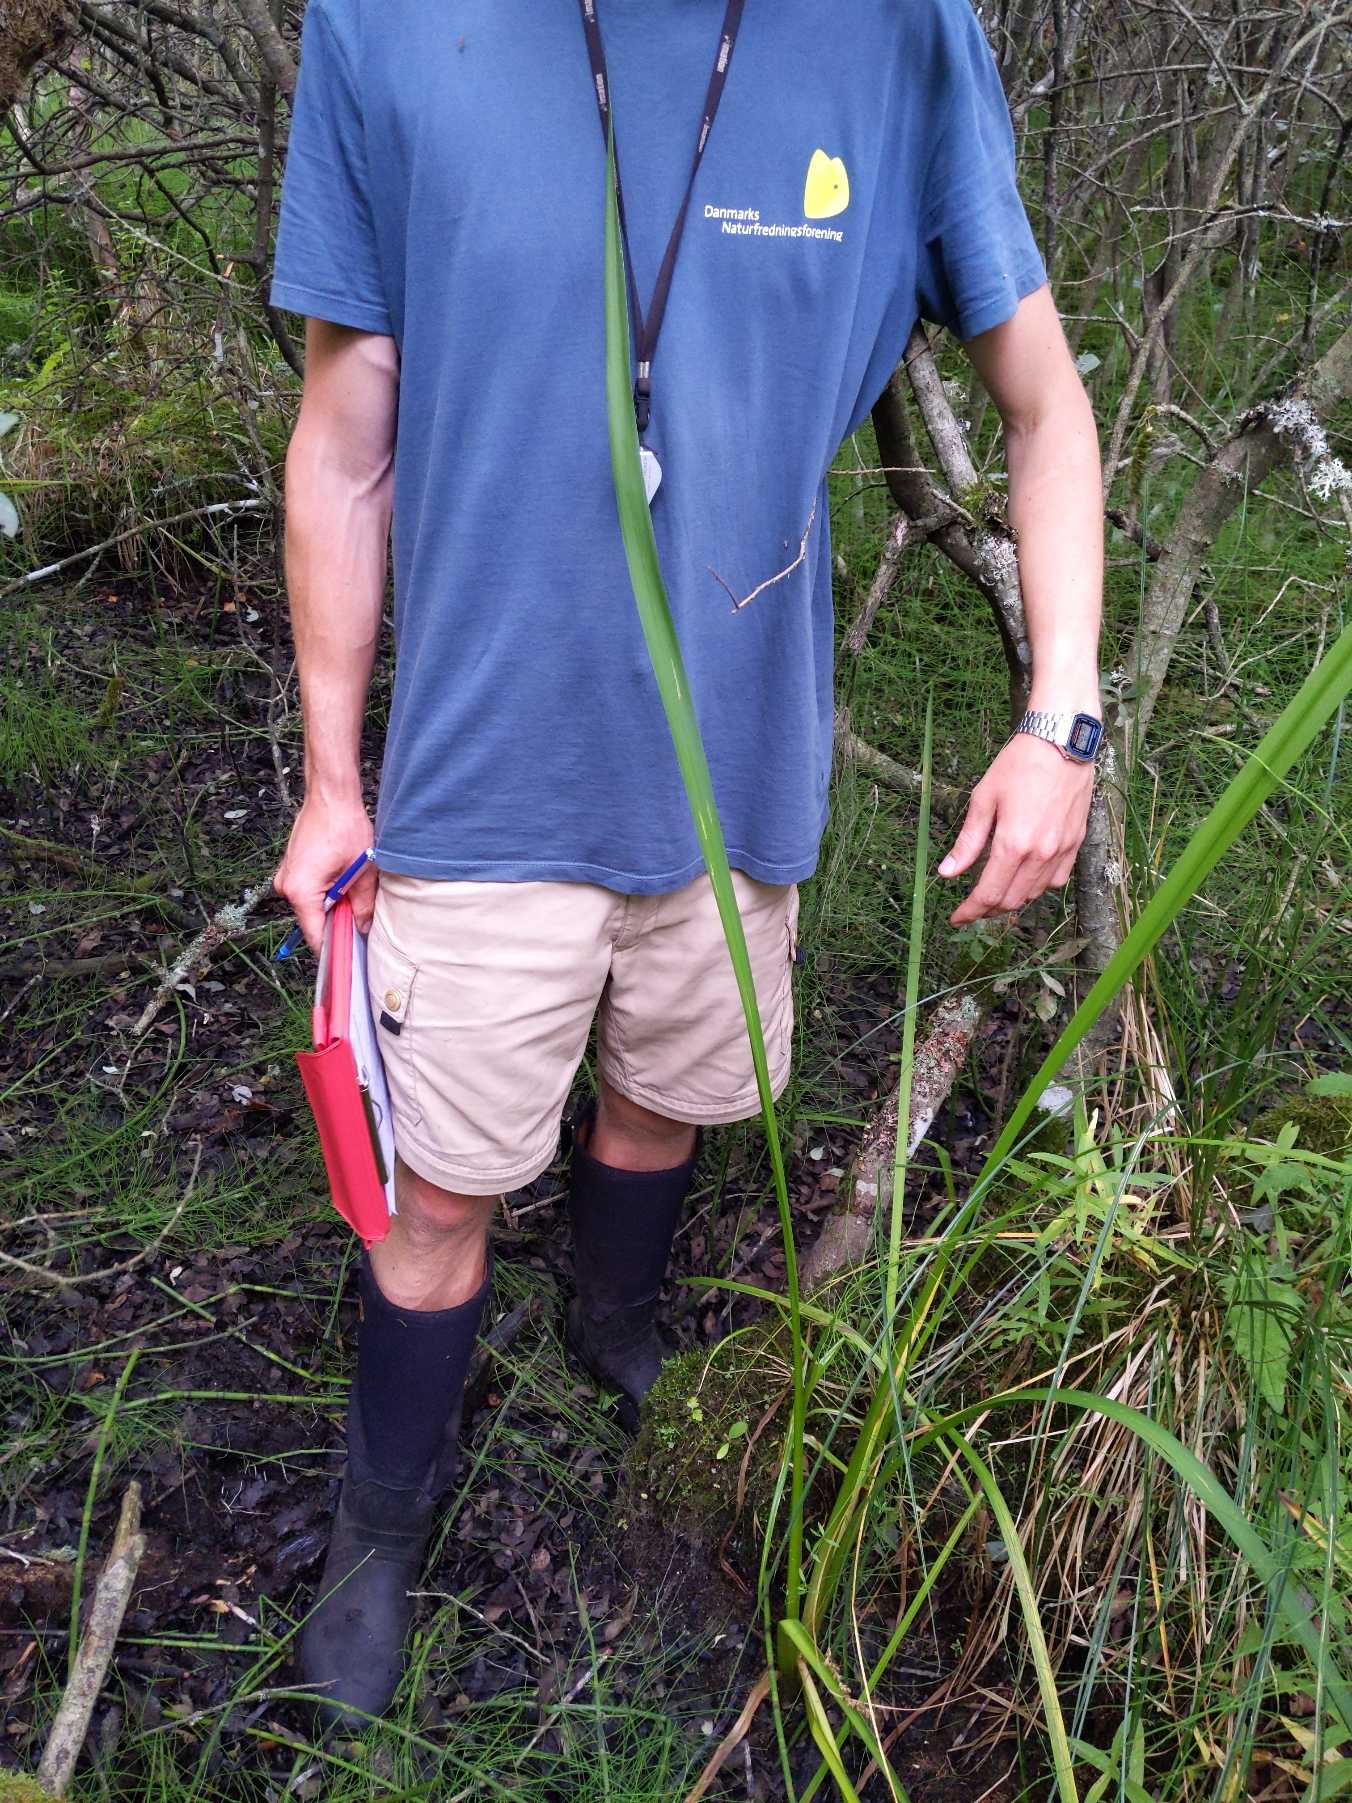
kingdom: Plantae
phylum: Tracheophyta
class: Liliopsida
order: Poales
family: Typhaceae
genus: Sparganium
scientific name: Sparganium erectum
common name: Grenet pindsvineknop
